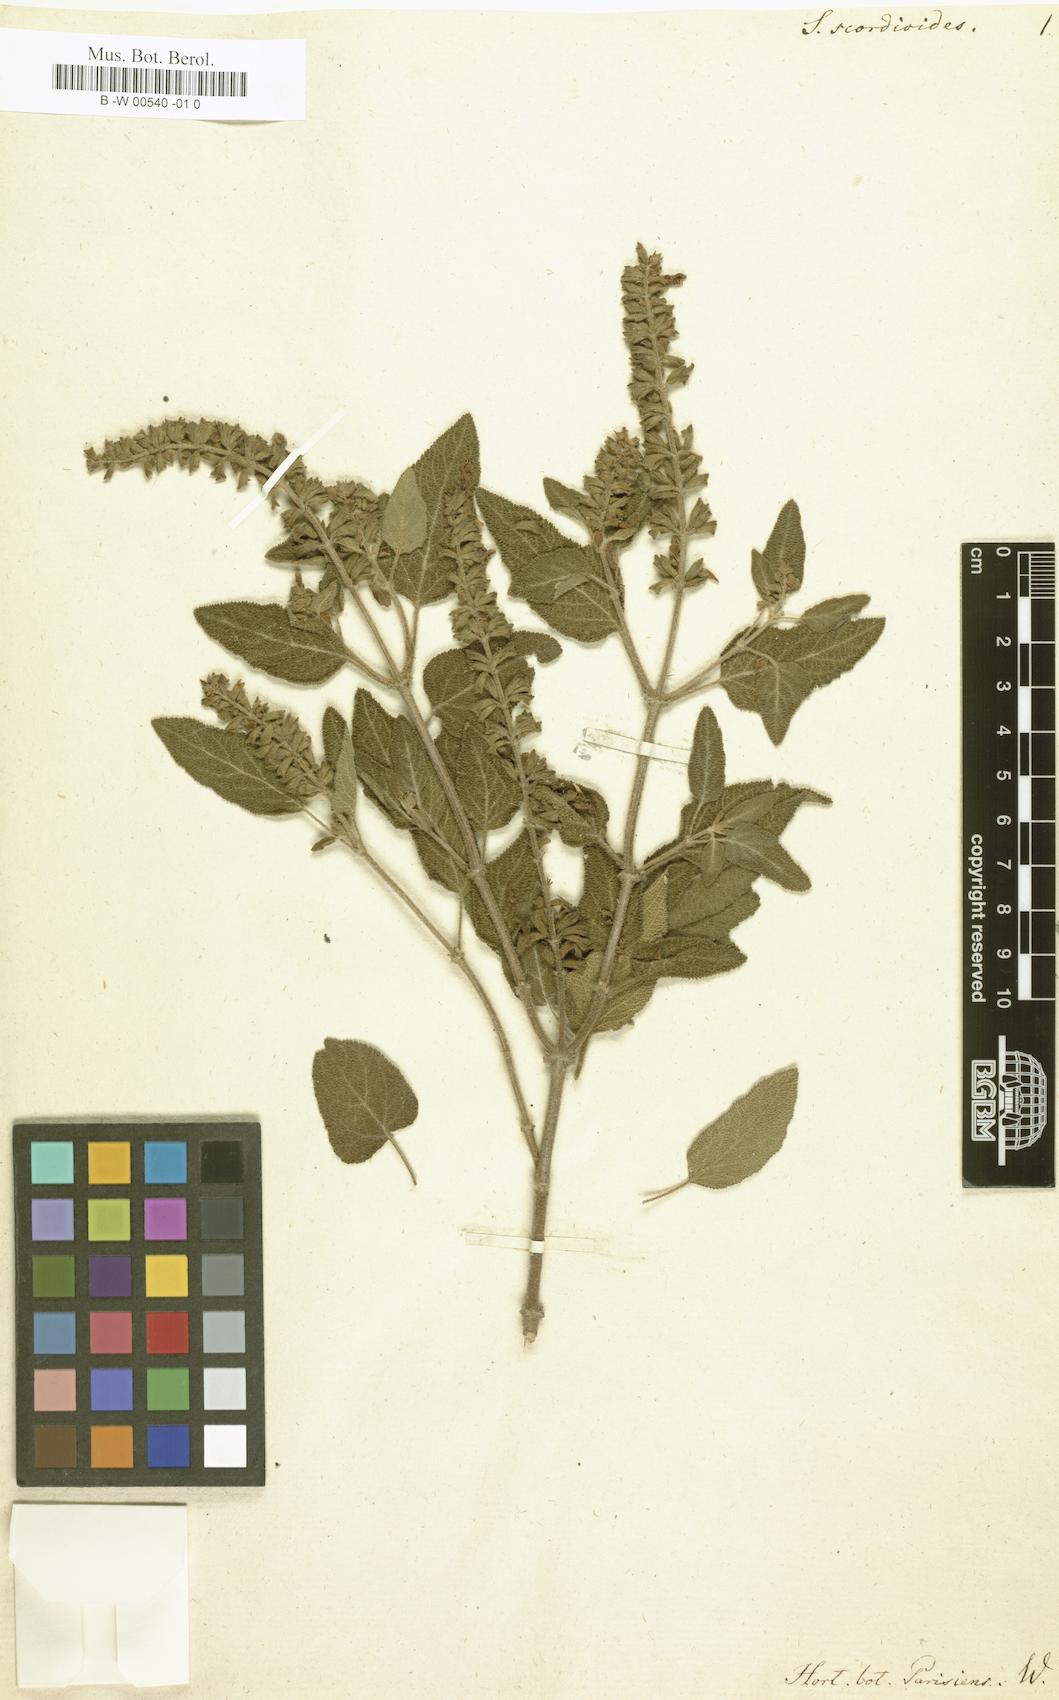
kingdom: Plantae
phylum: Tracheophyta
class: Magnoliopsida
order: Lamiales
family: Lamiaceae
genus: Salvia
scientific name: Salvia
